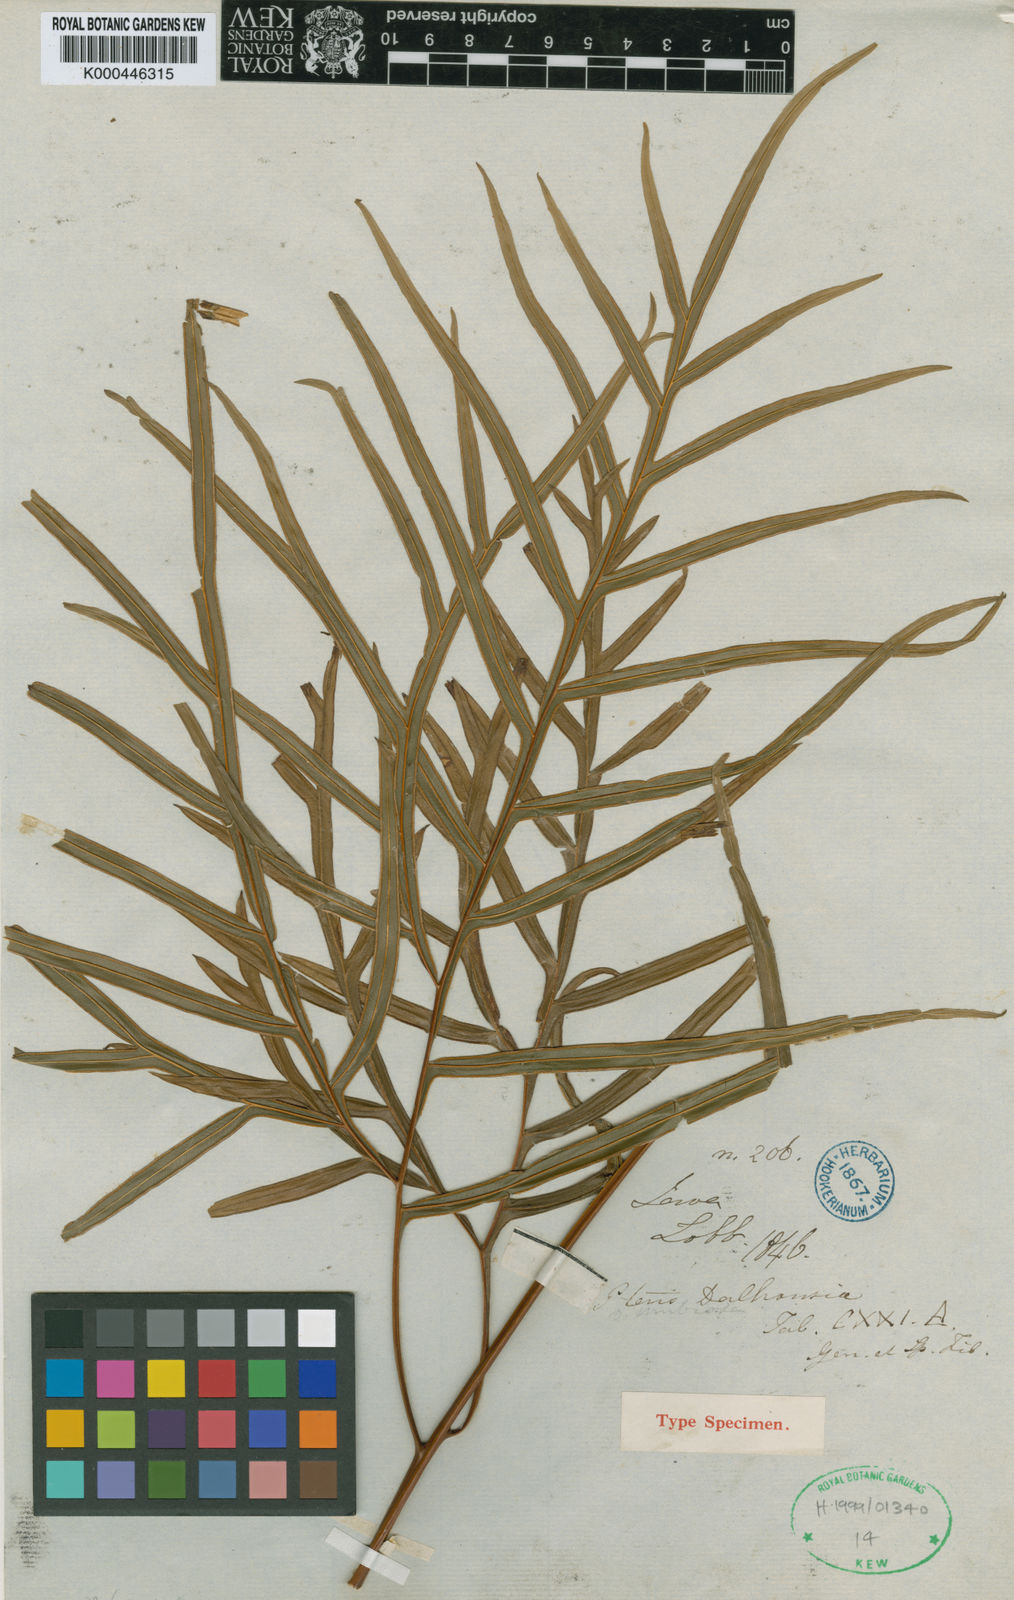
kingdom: Plantae
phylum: Tracheophyta
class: Polypodiopsida
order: Polypodiales
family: Pteridaceae
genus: Pteris
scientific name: Pteris dalhousieae
